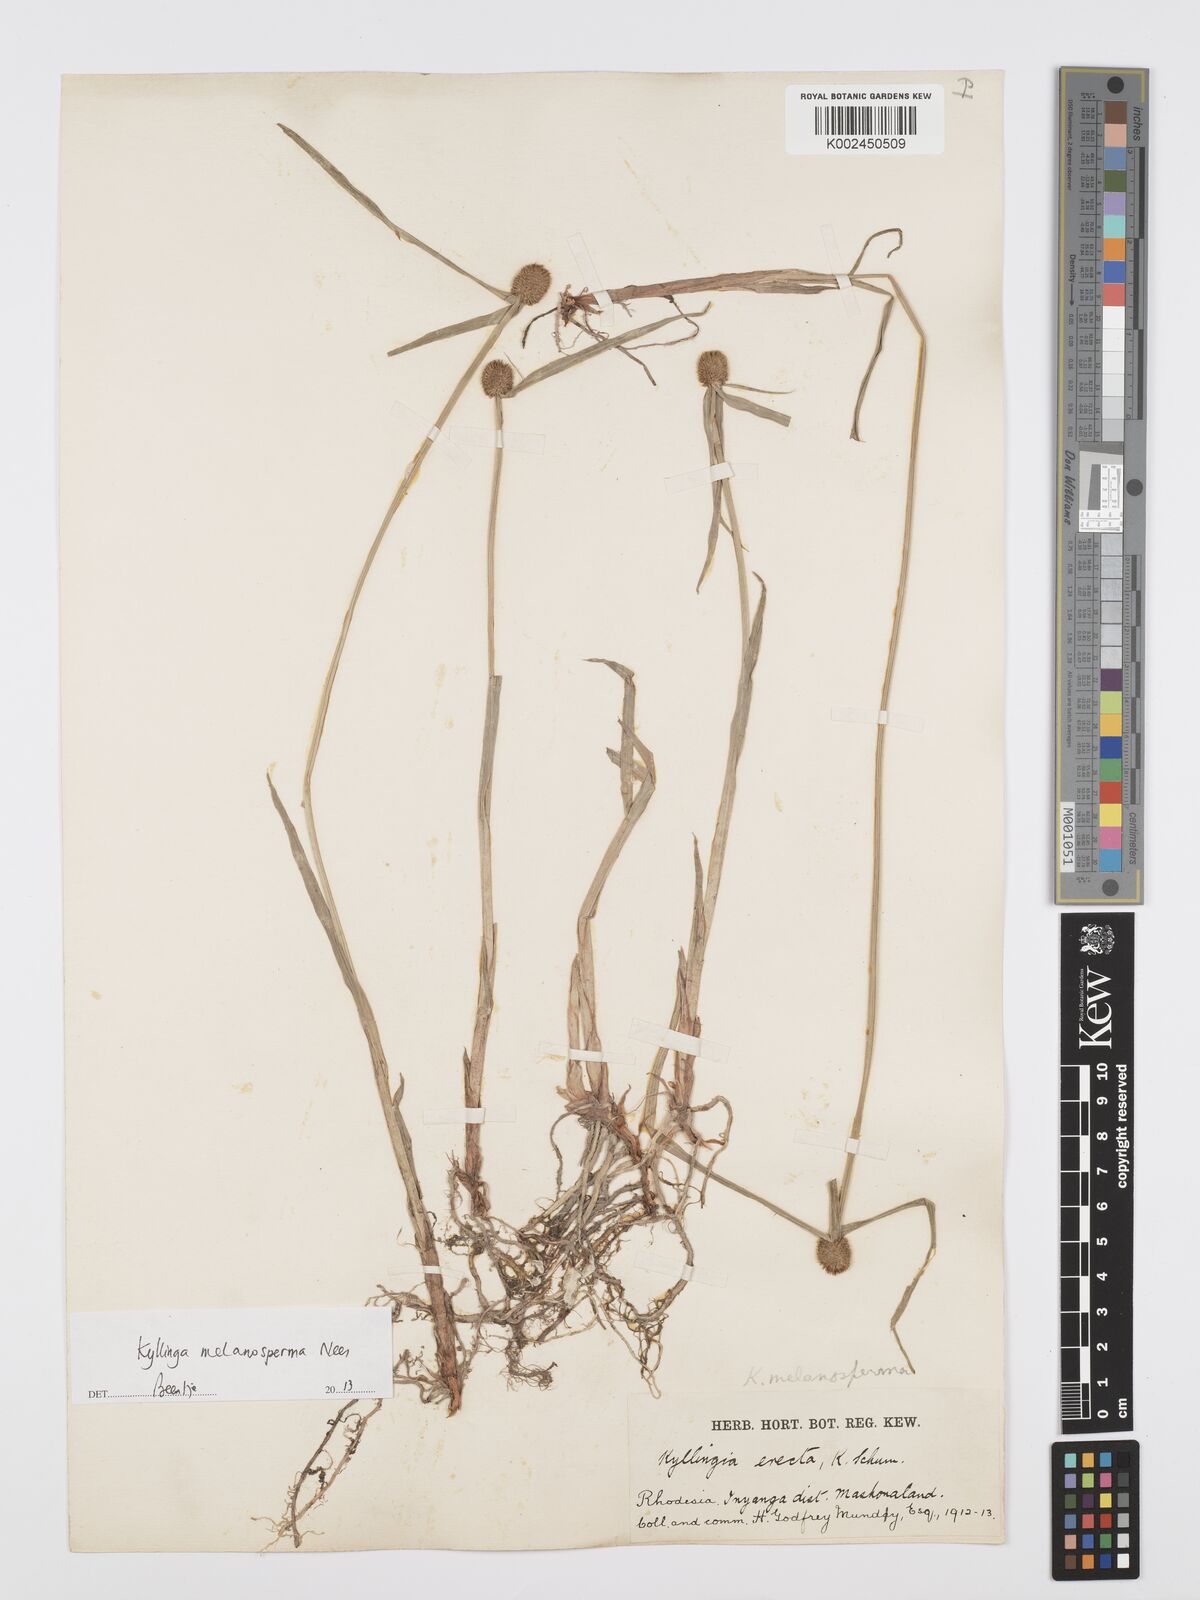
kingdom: Plantae
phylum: Tracheophyta
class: Liliopsida
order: Poales
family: Cyperaceae
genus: Cyperus
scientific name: Cyperus melanospermus
